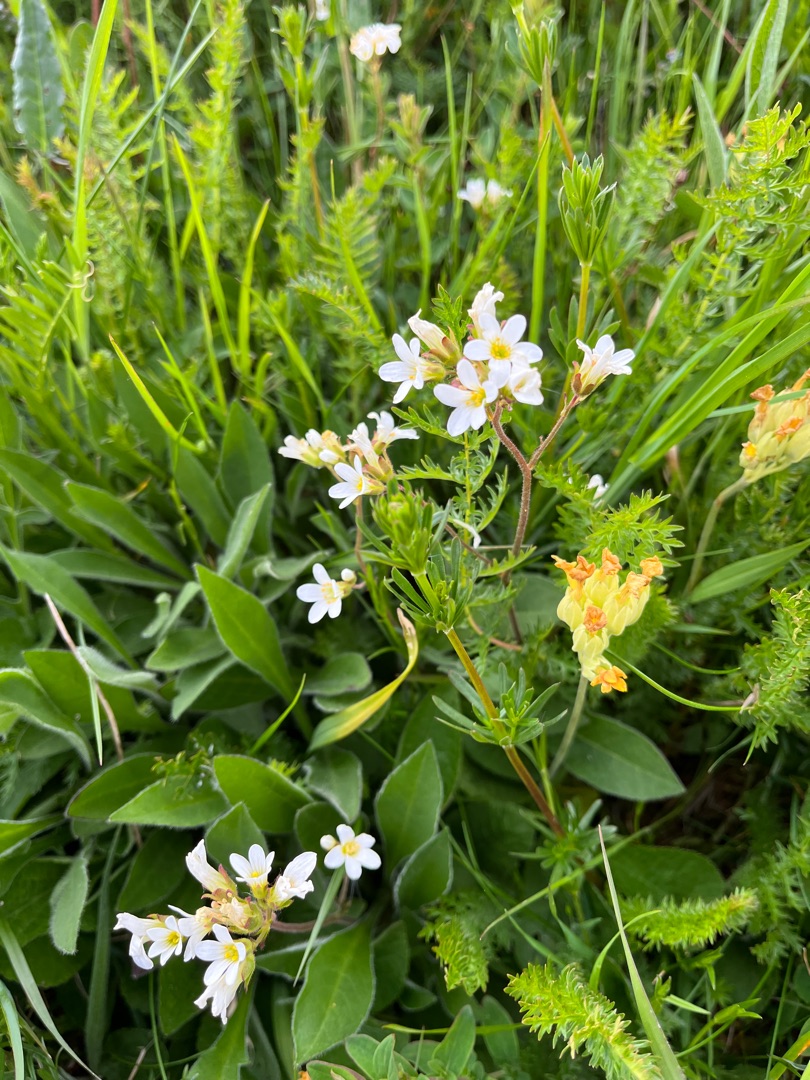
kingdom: Plantae
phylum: Tracheophyta
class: Magnoliopsida
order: Saxifragales
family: Saxifragaceae
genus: Saxifraga
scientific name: Saxifraga granulata
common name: Kornet stenbræk
